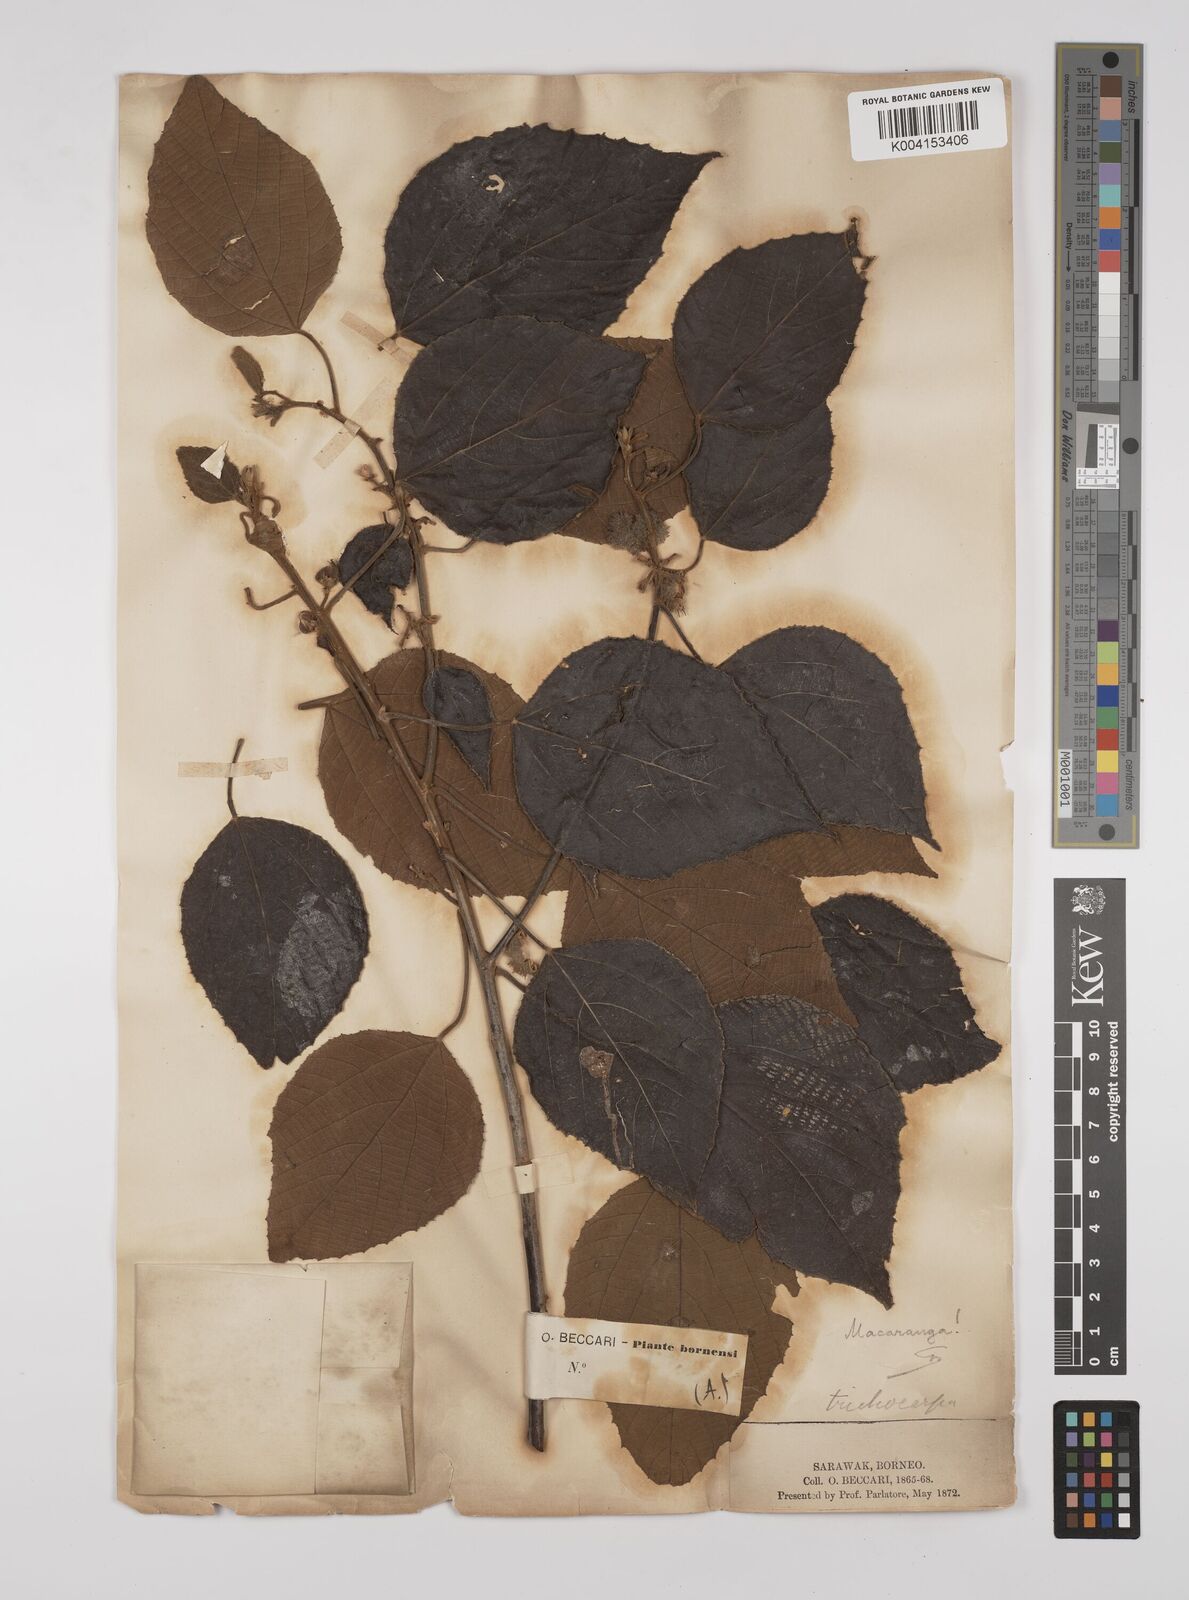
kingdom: Plantae
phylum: Tracheophyta
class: Magnoliopsida
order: Malpighiales
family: Euphorbiaceae
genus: Macaranga
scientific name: Macaranga trichocarpa
